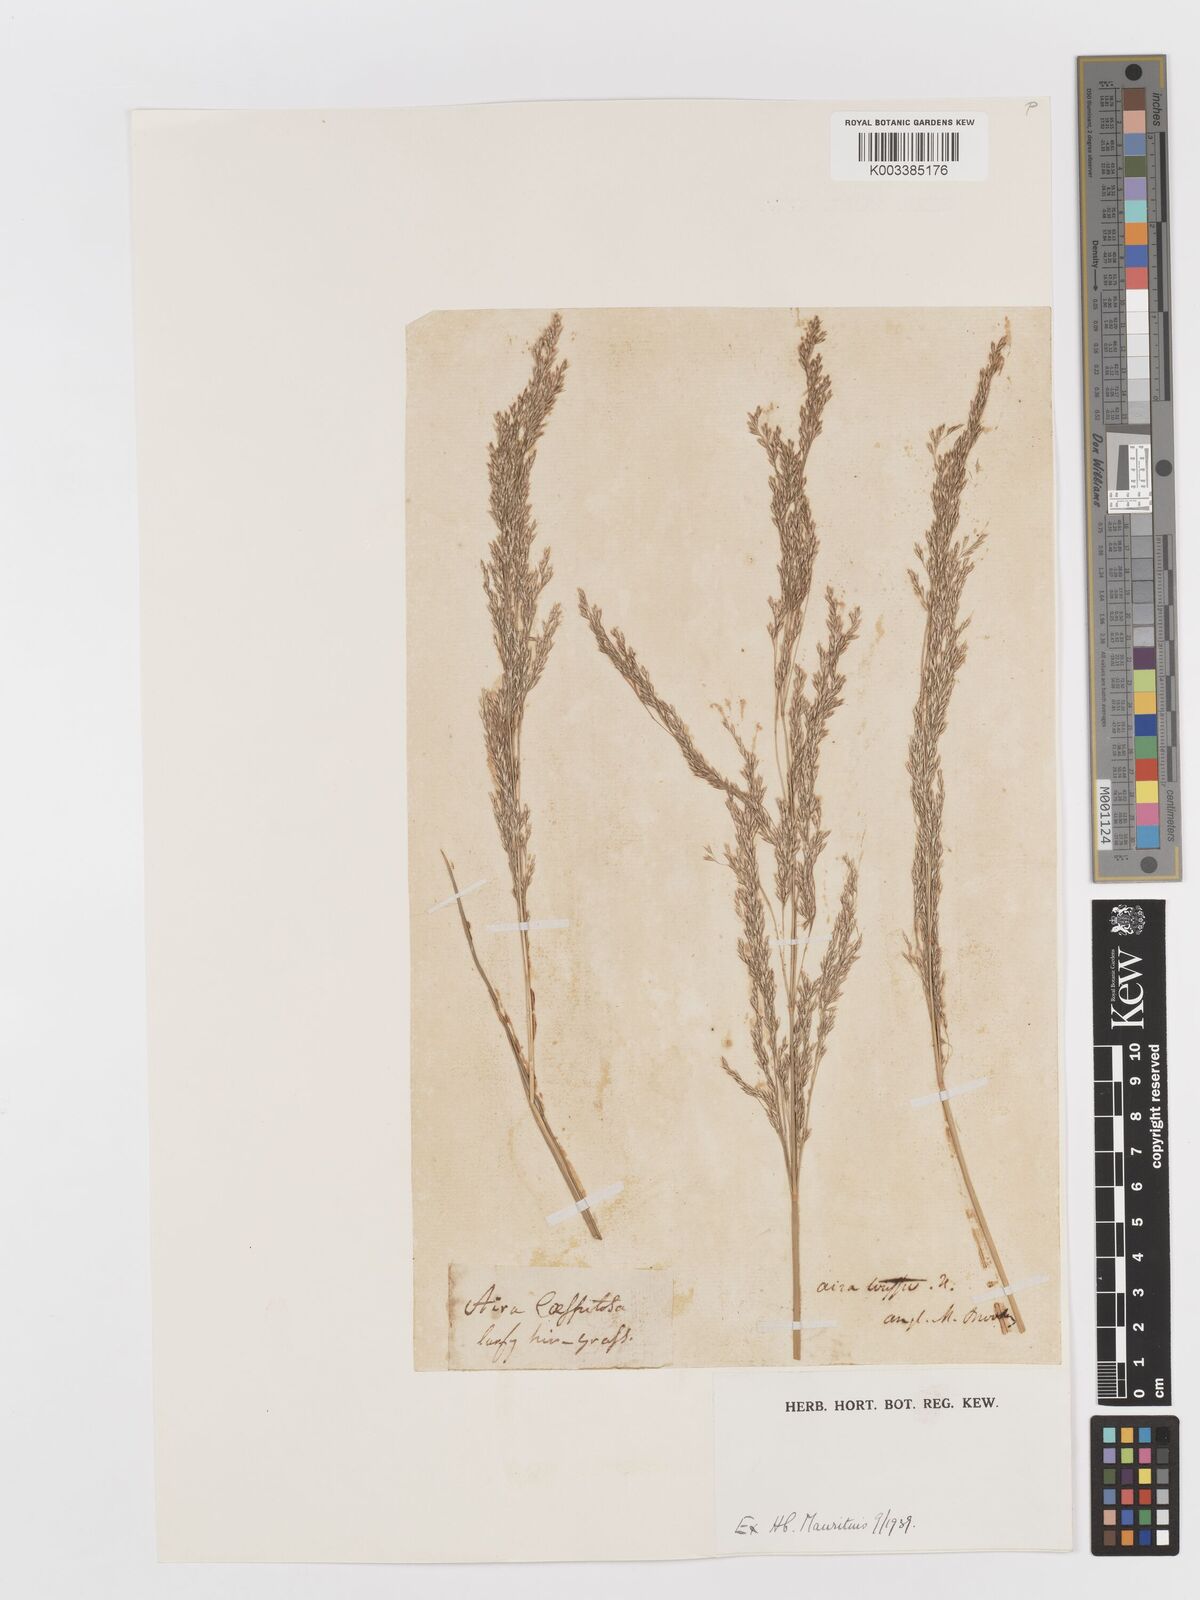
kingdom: Plantae
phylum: Tracheophyta
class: Liliopsida
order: Poales
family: Poaceae
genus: Deschampsia
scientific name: Deschampsia cespitosa
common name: Tufted hair-grass
